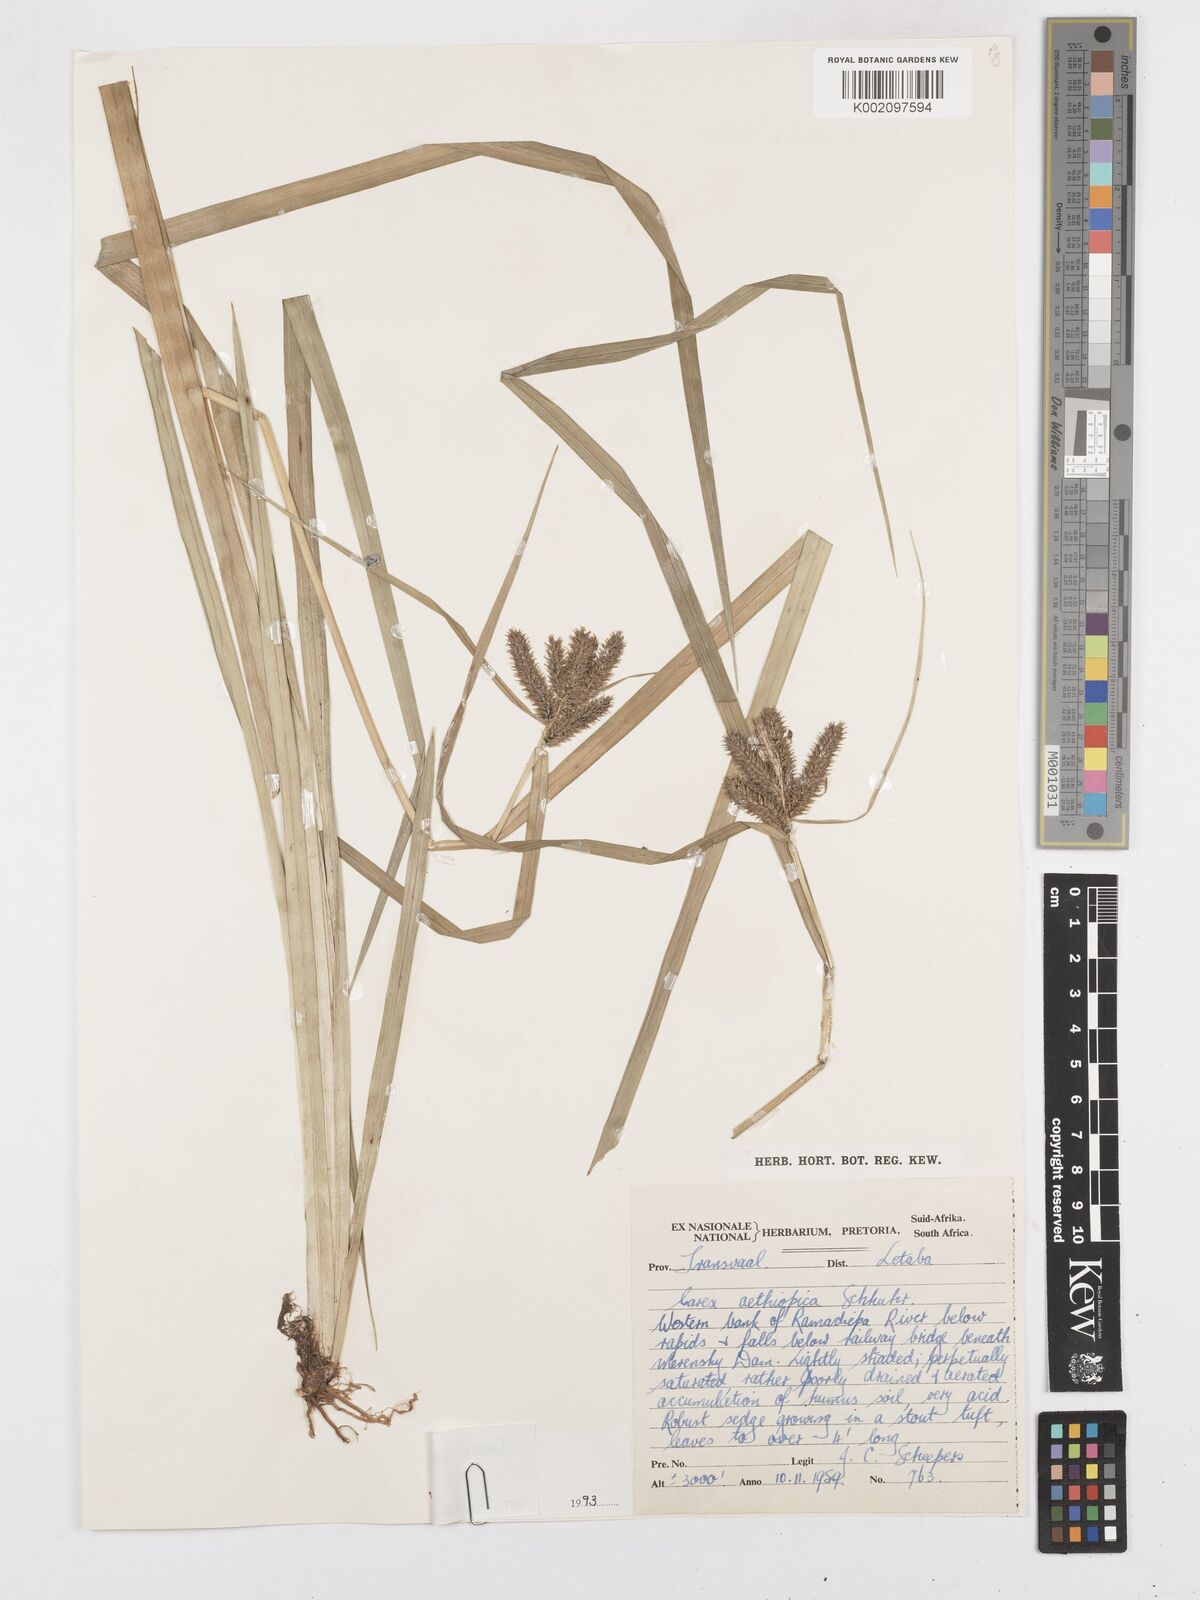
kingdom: Plantae
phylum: Tracheophyta
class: Liliopsida
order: Poales
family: Cyperaceae
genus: Carex
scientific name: Carex cognata
